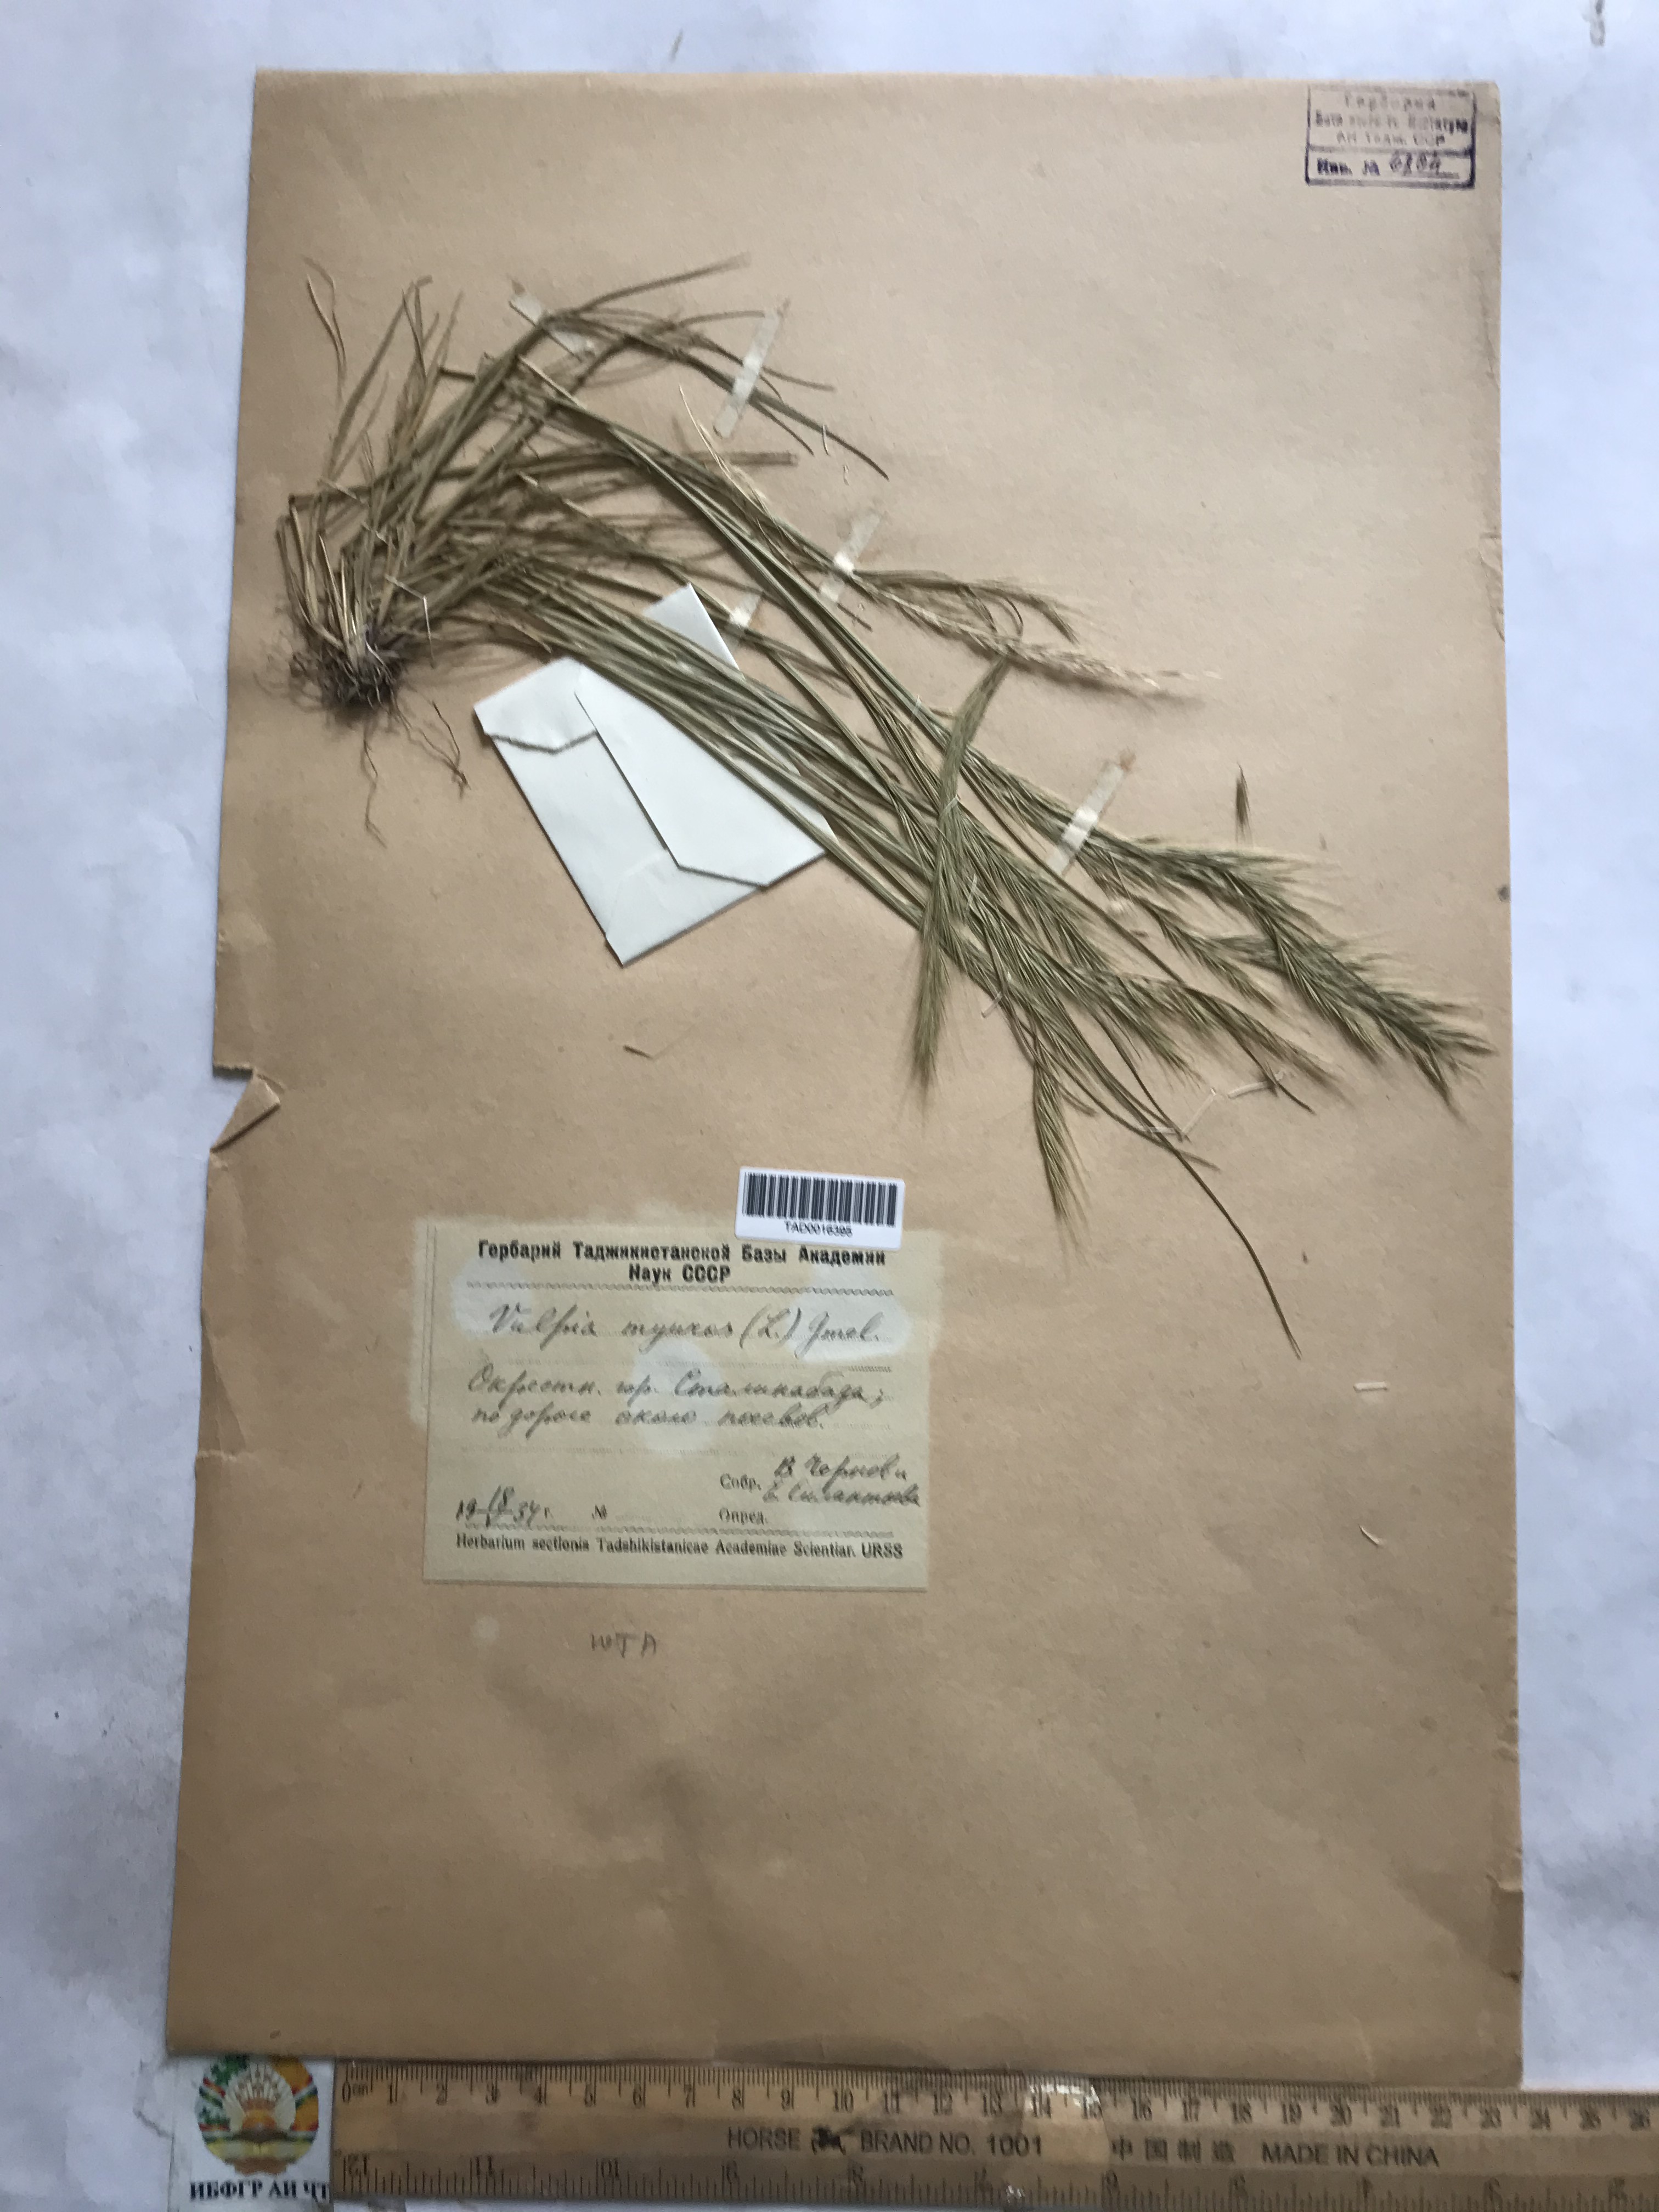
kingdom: Plantae
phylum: Tracheophyta
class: Liliopsida
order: Poales
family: Poaceae
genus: Festuca
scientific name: Festuca myuros
